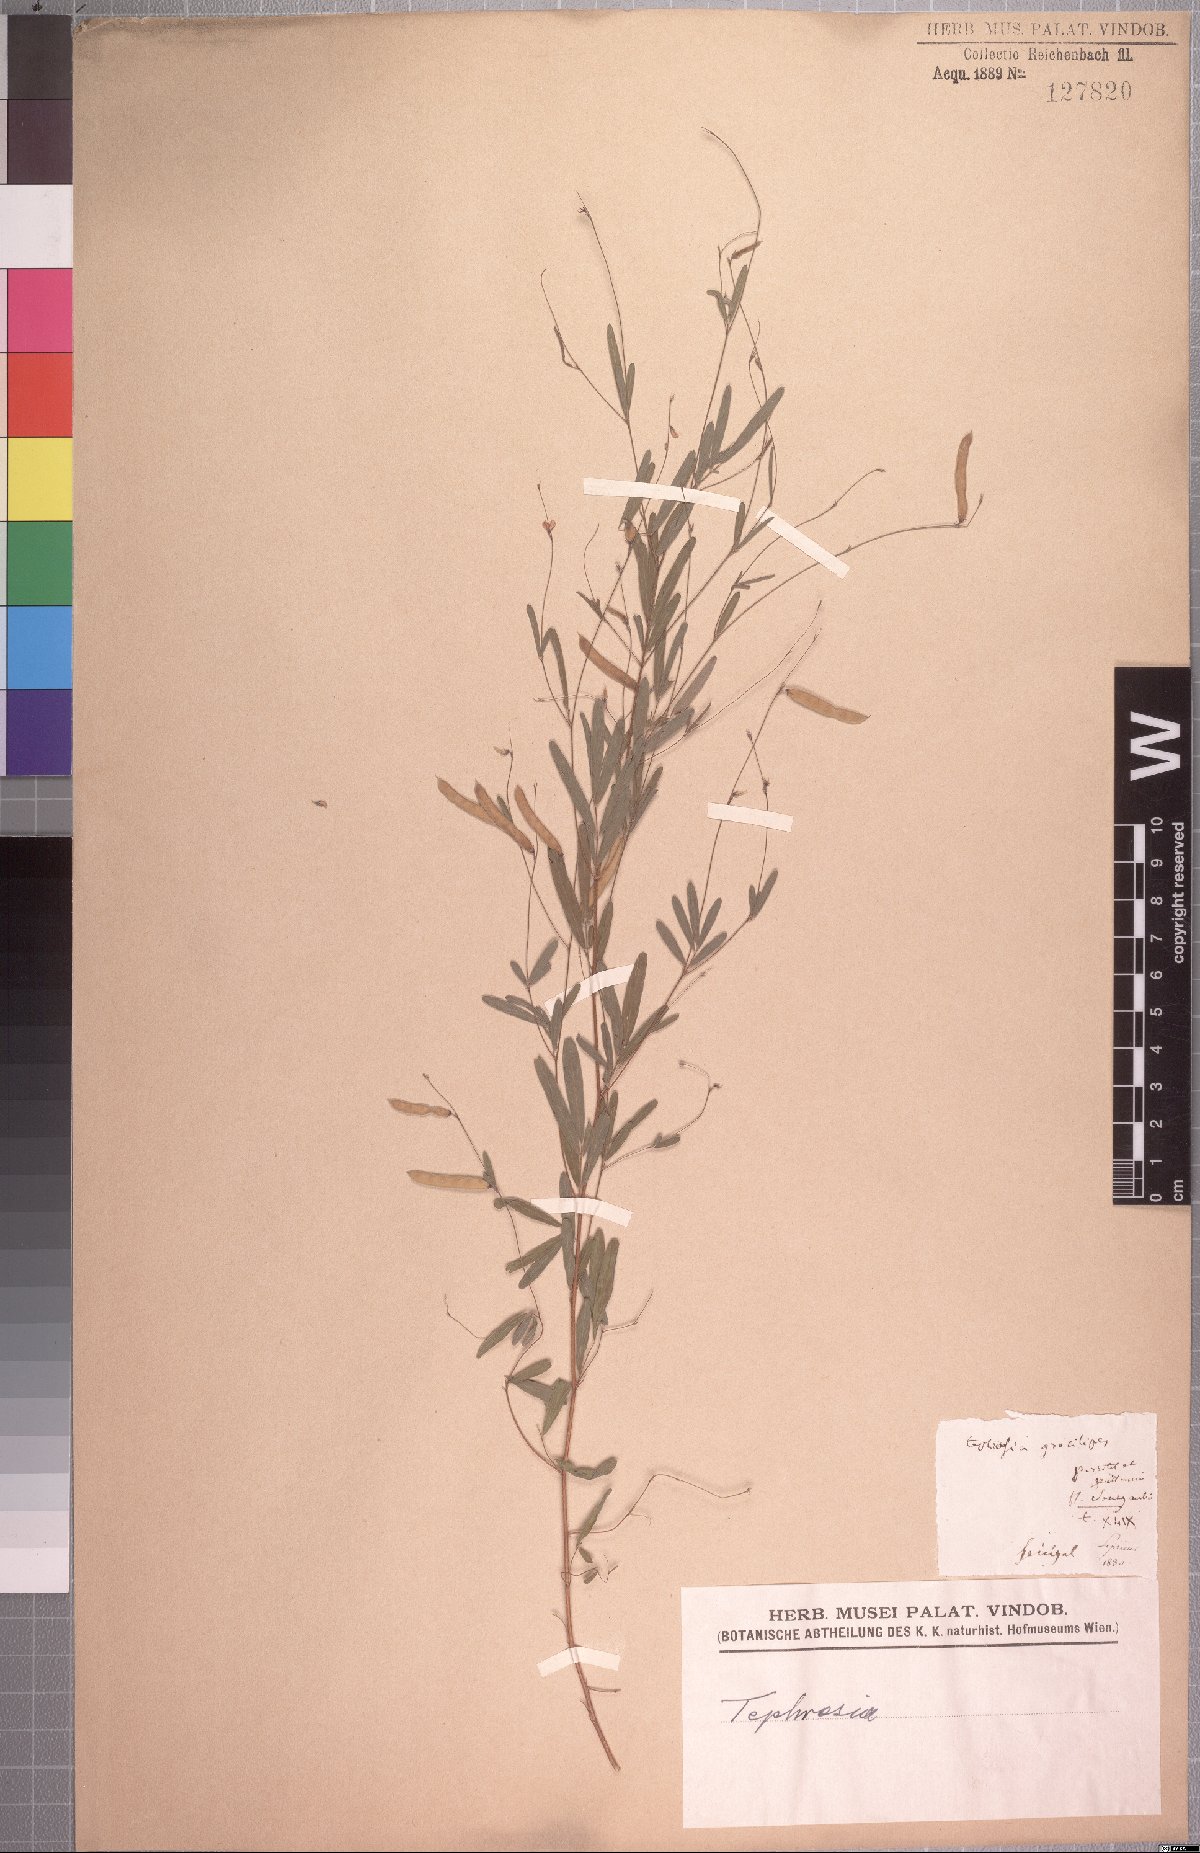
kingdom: Plantae
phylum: Tracheophyta
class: Magnoliopsida
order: Fabales
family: Fabaceae
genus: Tephrosia
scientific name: Tephrosia gracilipes
